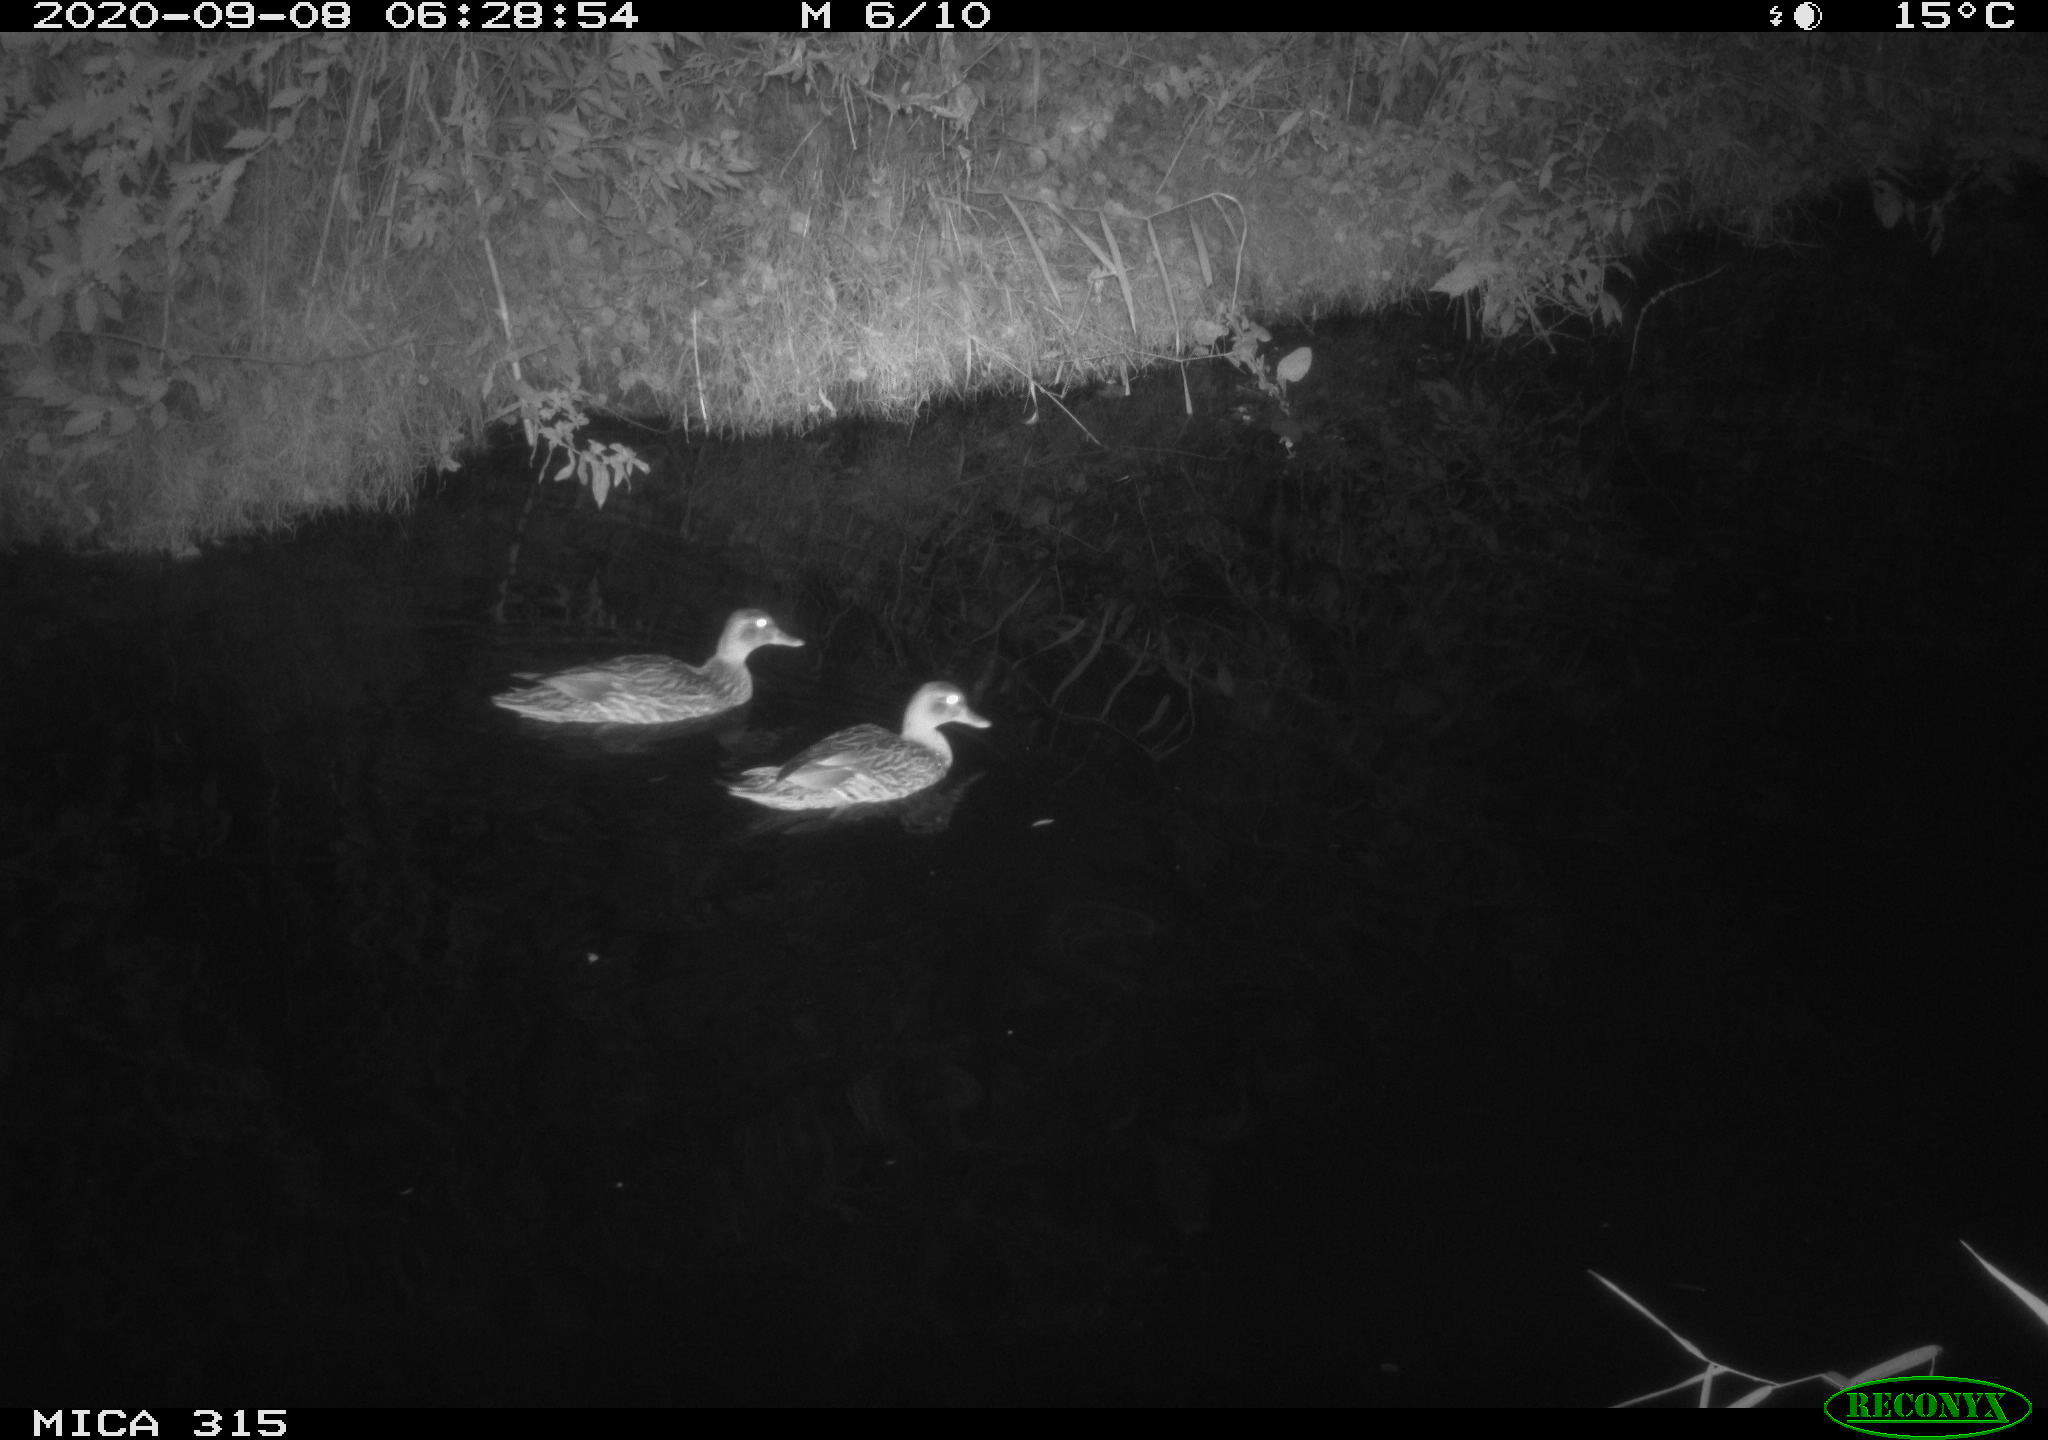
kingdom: Animalia
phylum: Chordata
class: Aves
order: Anseriformes
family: Anatidae
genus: Anas
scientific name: Anas platyrhynchos
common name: Mallard
